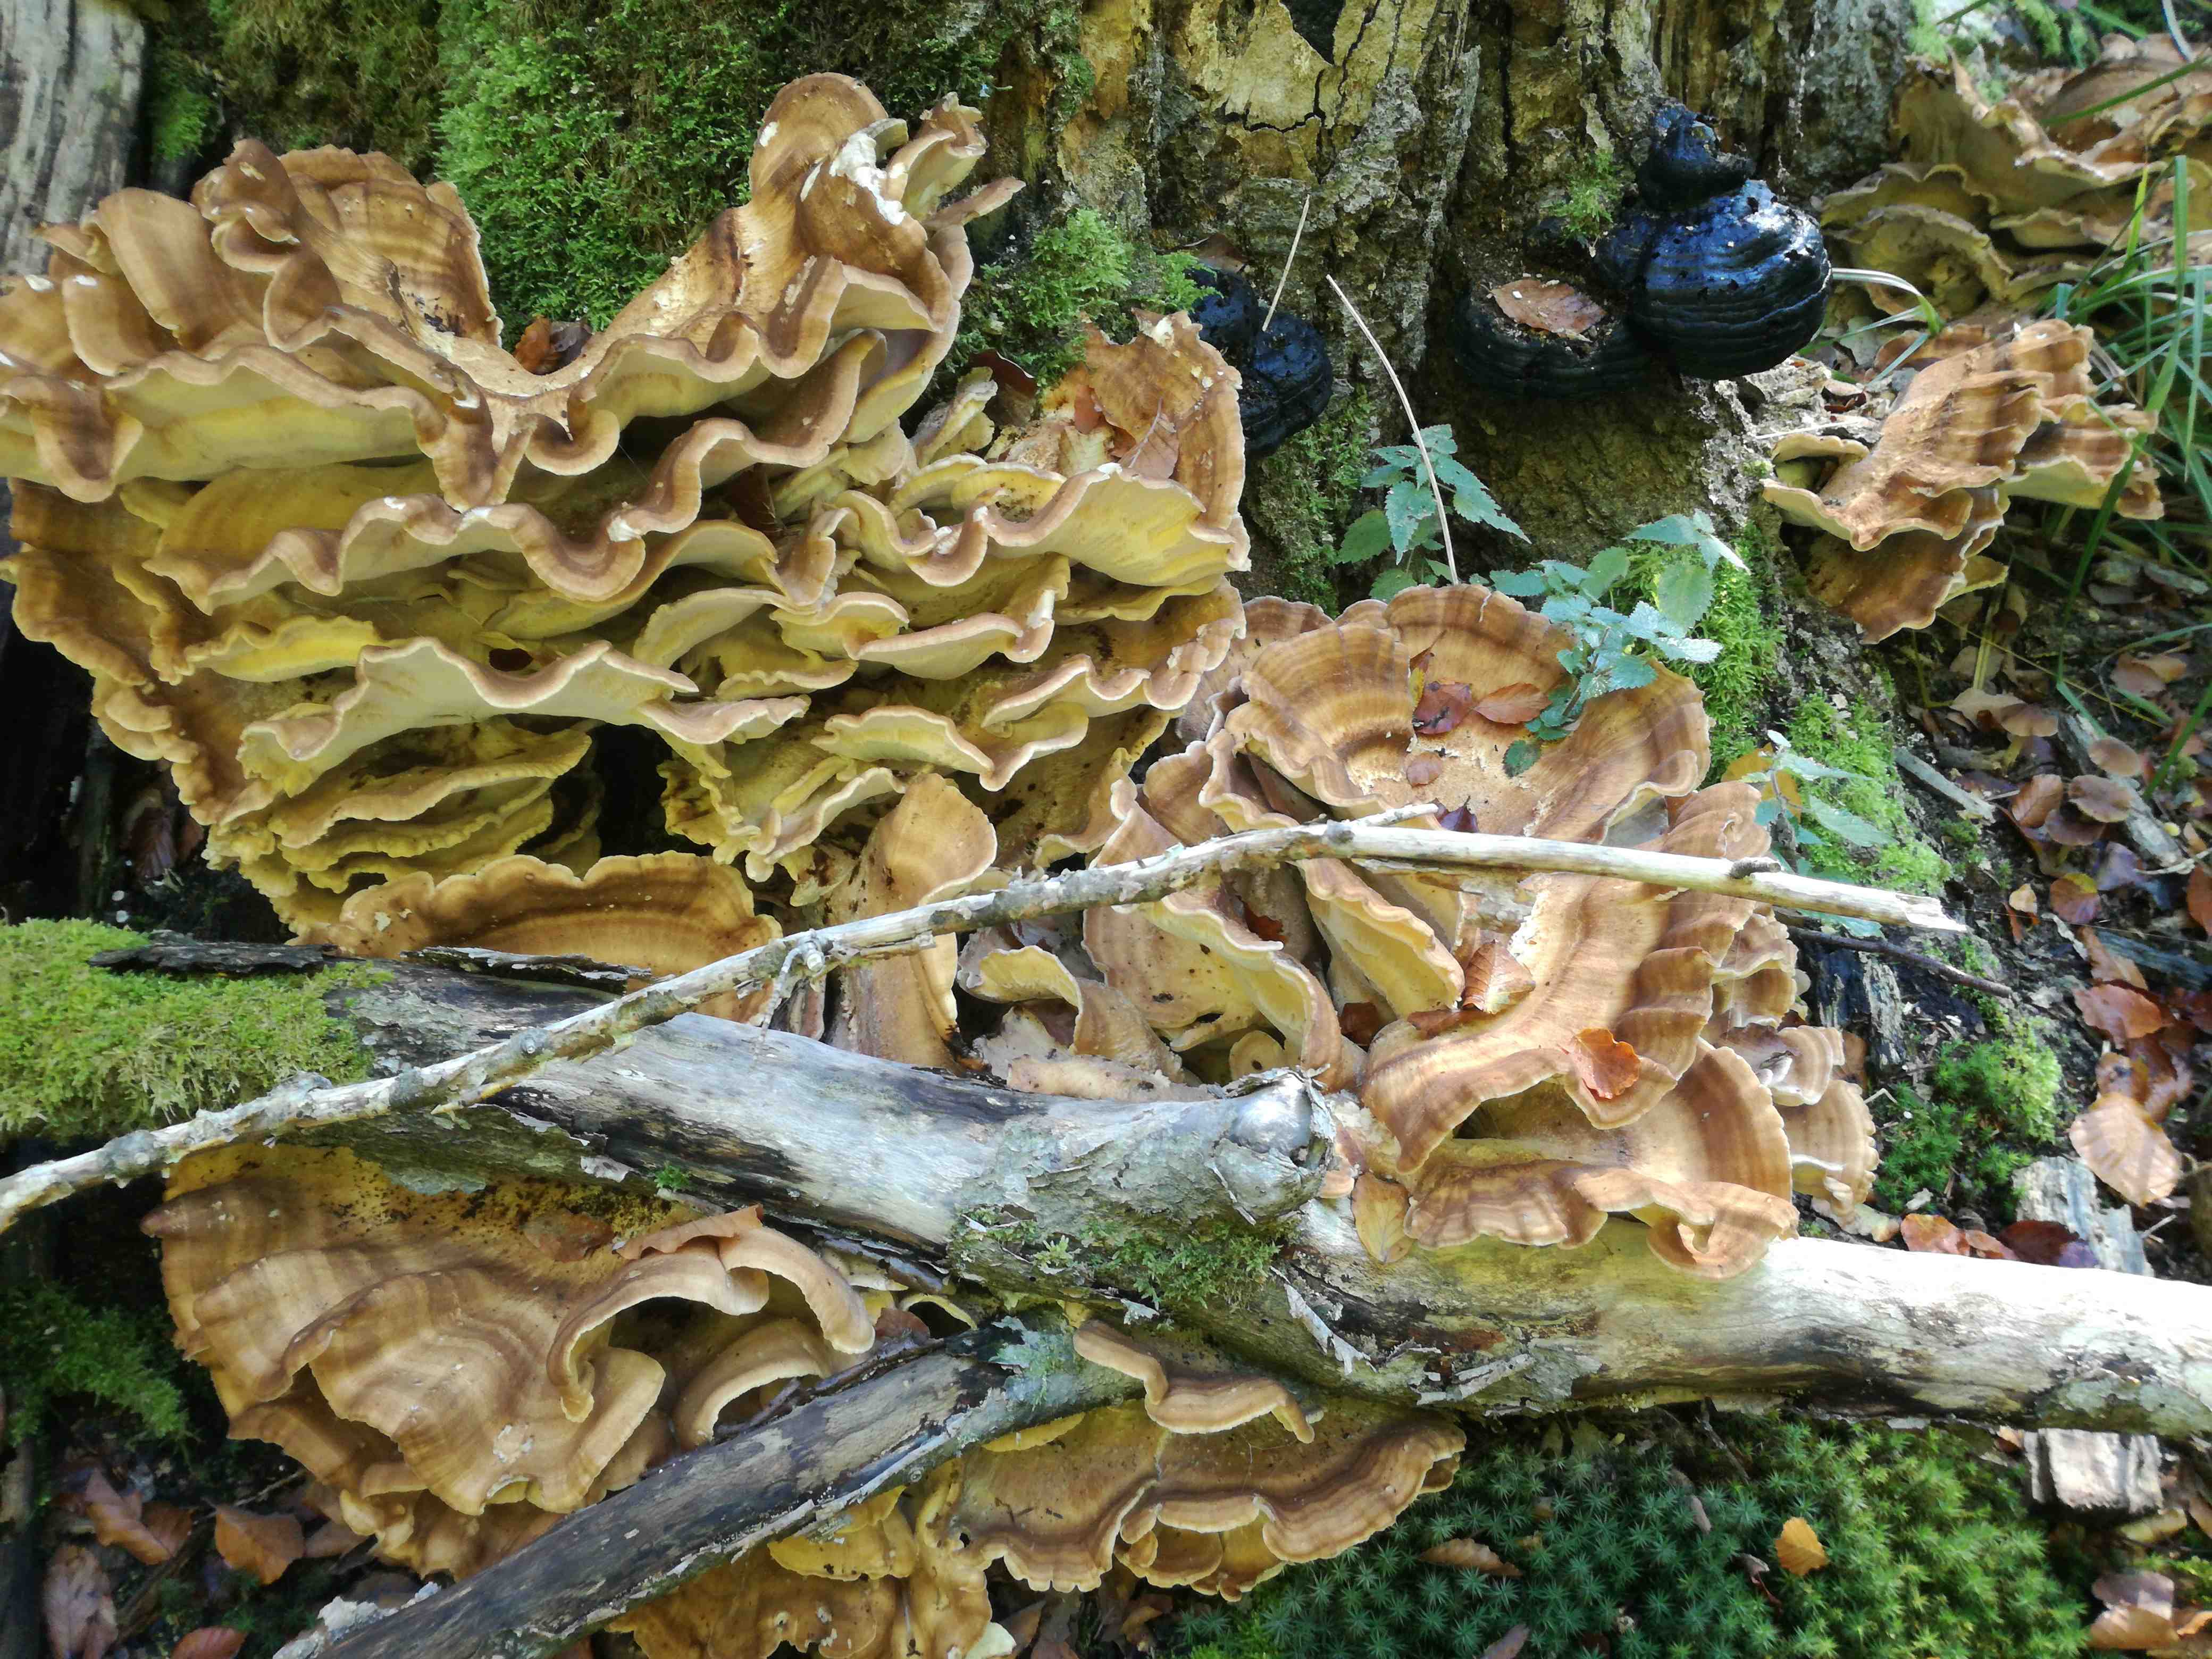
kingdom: Fungi
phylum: Basidiomycota
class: Agaricomycetes
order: Polyporales
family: Meripilaceae
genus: Meripilus
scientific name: Meripilus giganteus
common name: kæmpeporesvamp
